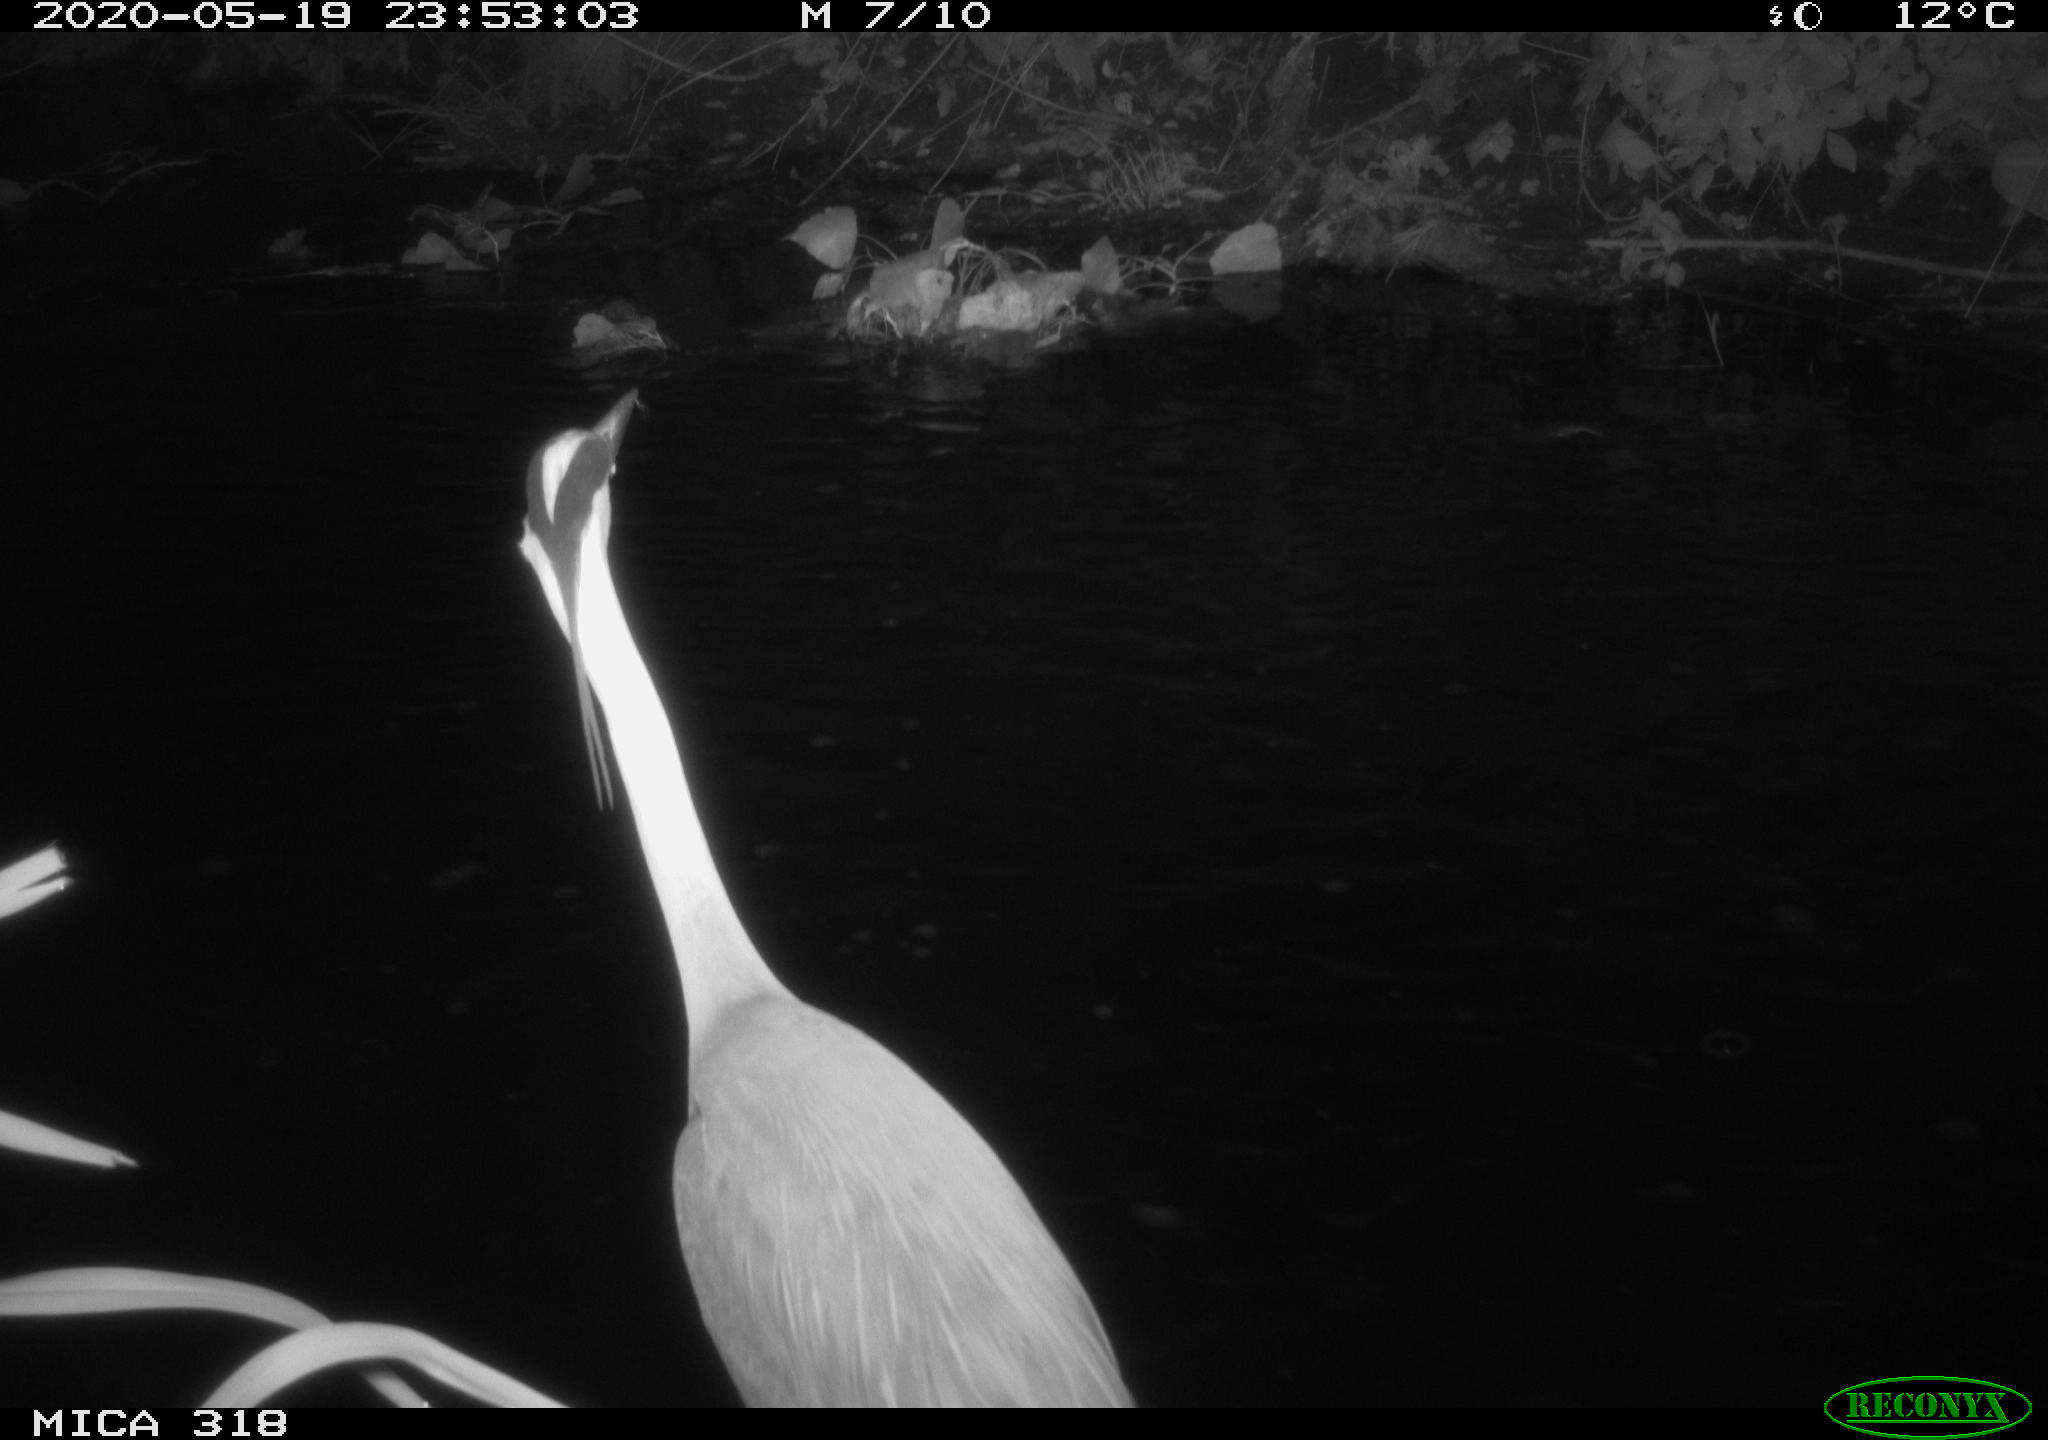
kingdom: Animalia
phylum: Chordata
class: Aves
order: Pelecaniformes
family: Ardeidae
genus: Ardea
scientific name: Ardea cinerea
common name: Grey heron
